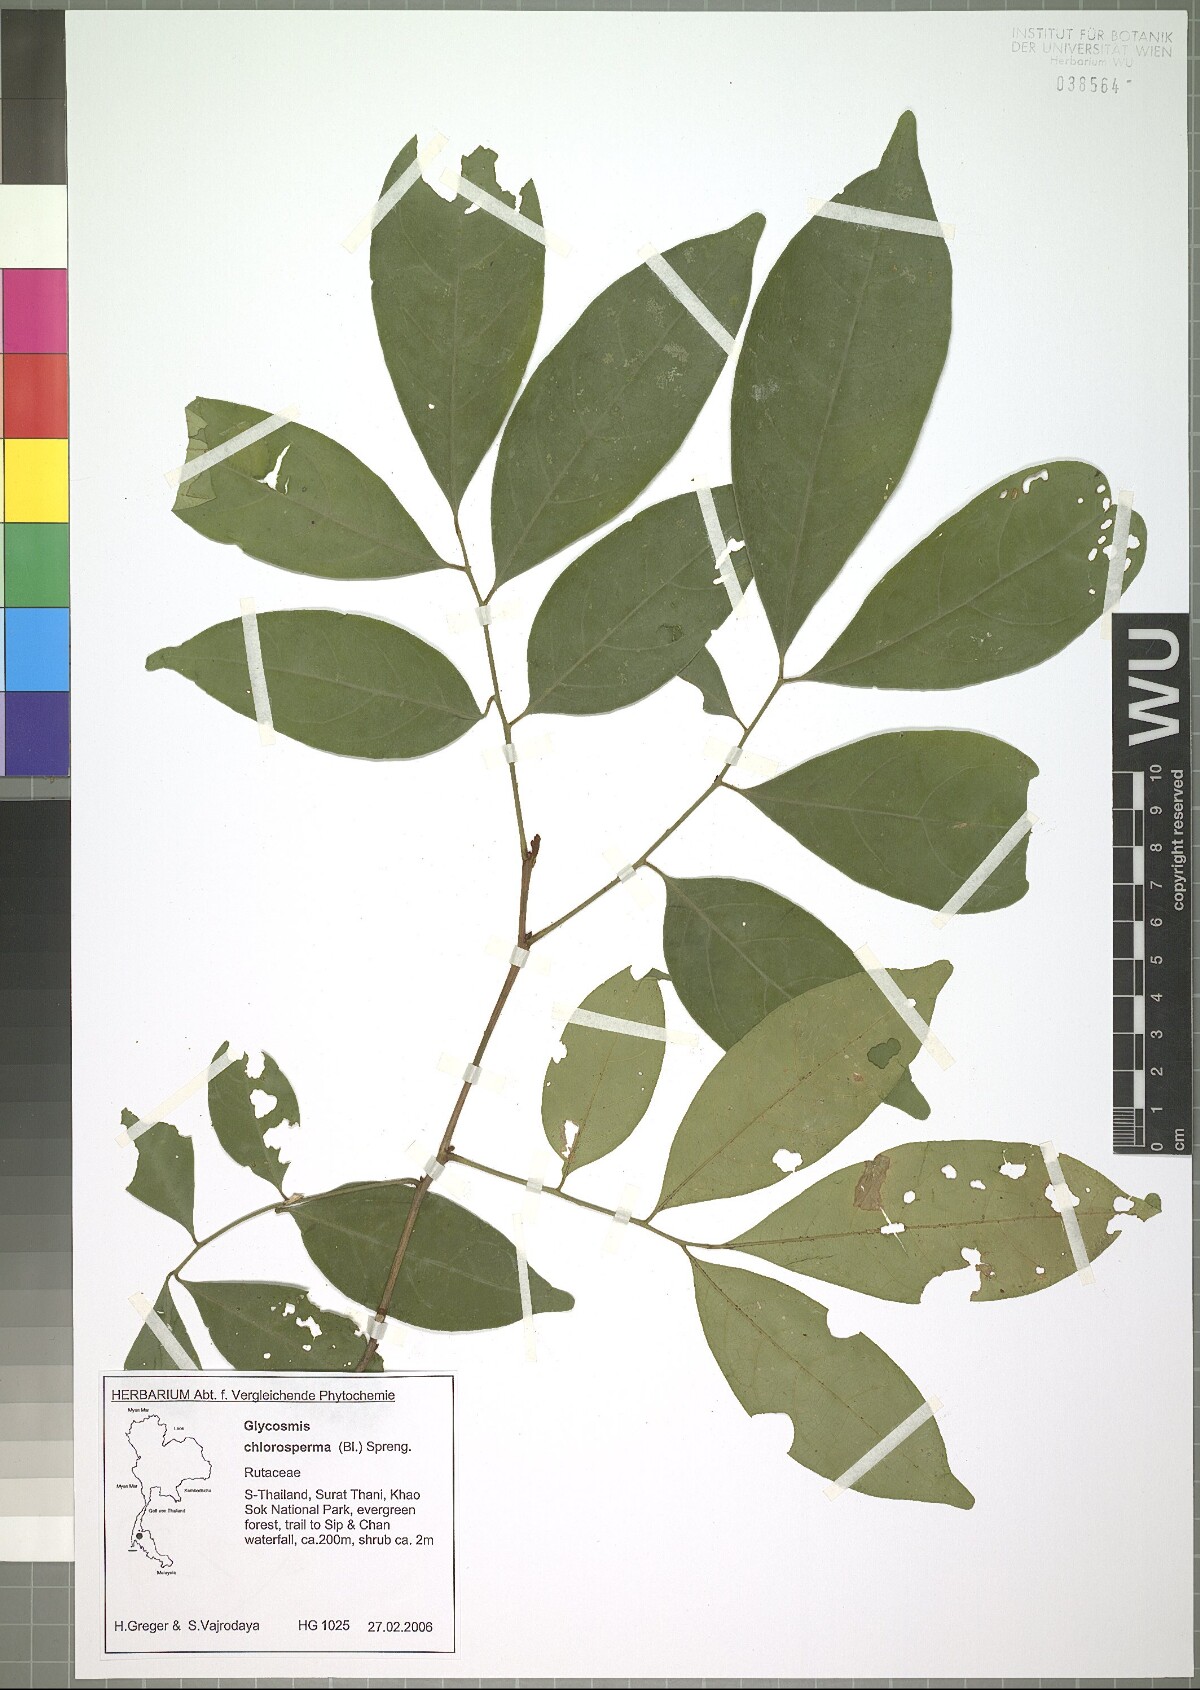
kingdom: Plantae
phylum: Tracheophyta
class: Magnoliopsida
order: Sapindales
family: Rutaceae
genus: Glycosmis
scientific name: Glycosmis chlorosperma
